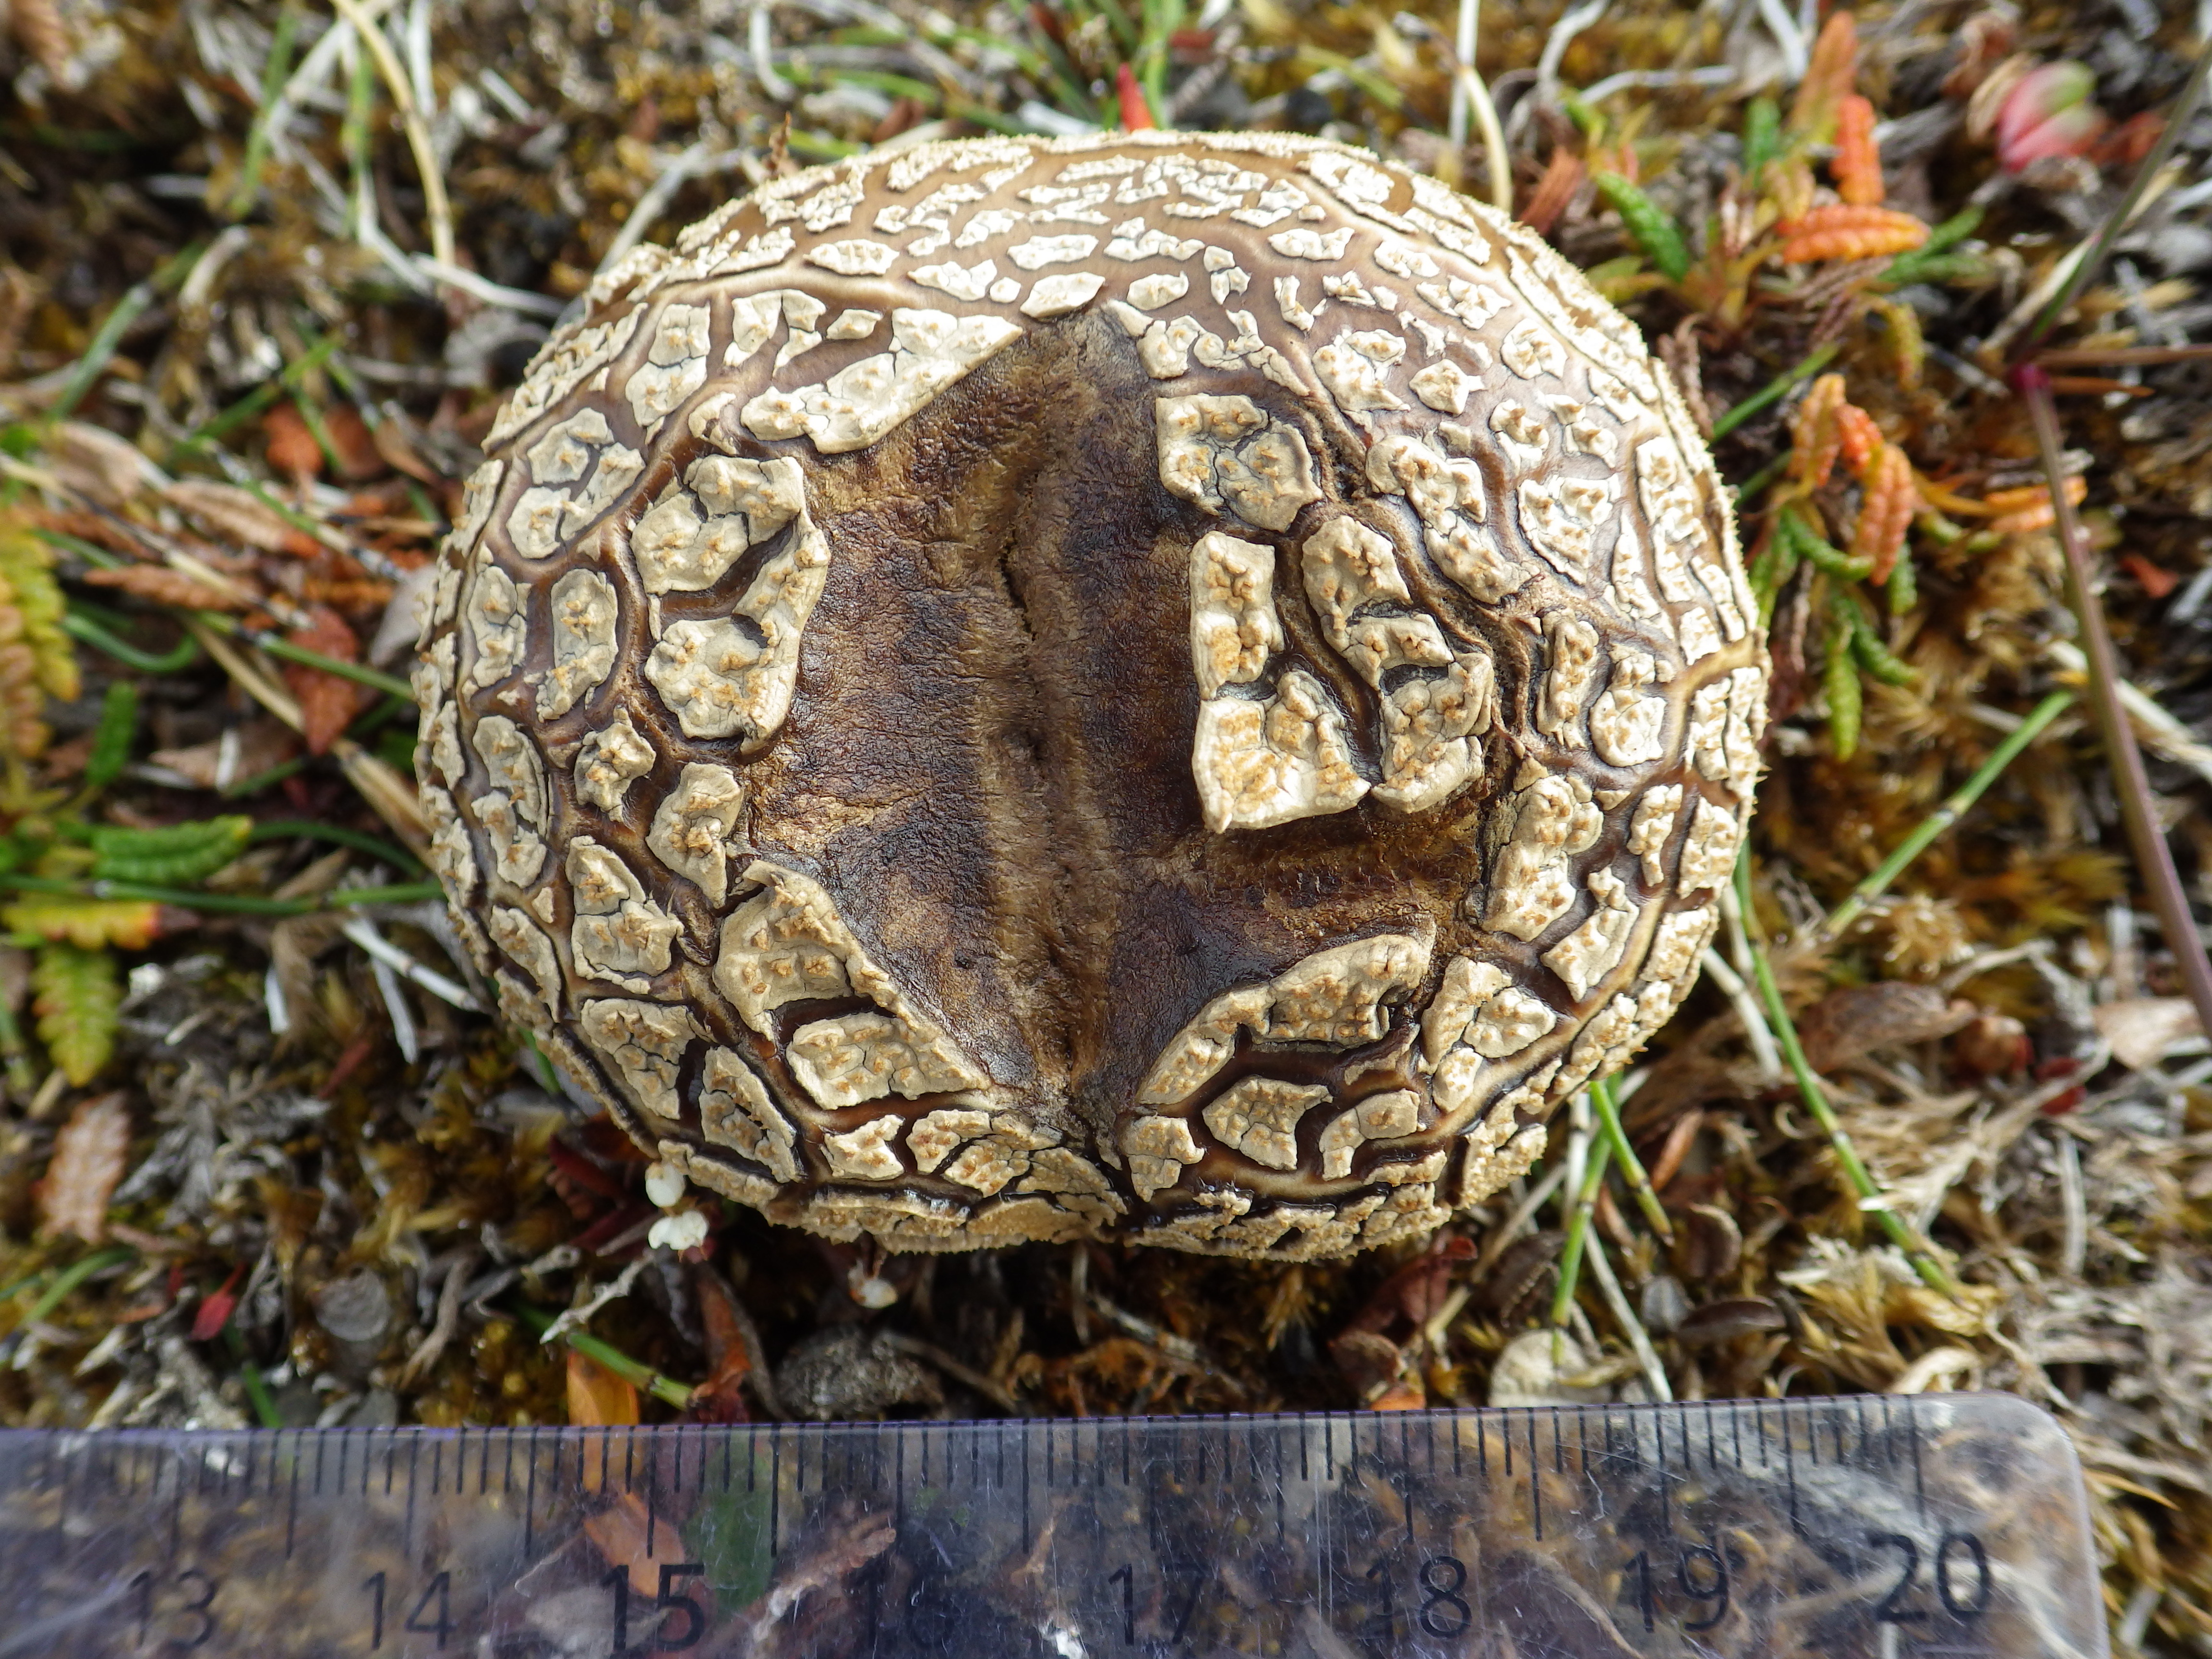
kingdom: Fungi
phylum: Basidiomycota
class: Agaricomycetes
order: Agaricales
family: Lycoperdaceae
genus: Calvatia
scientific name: Calvatia
